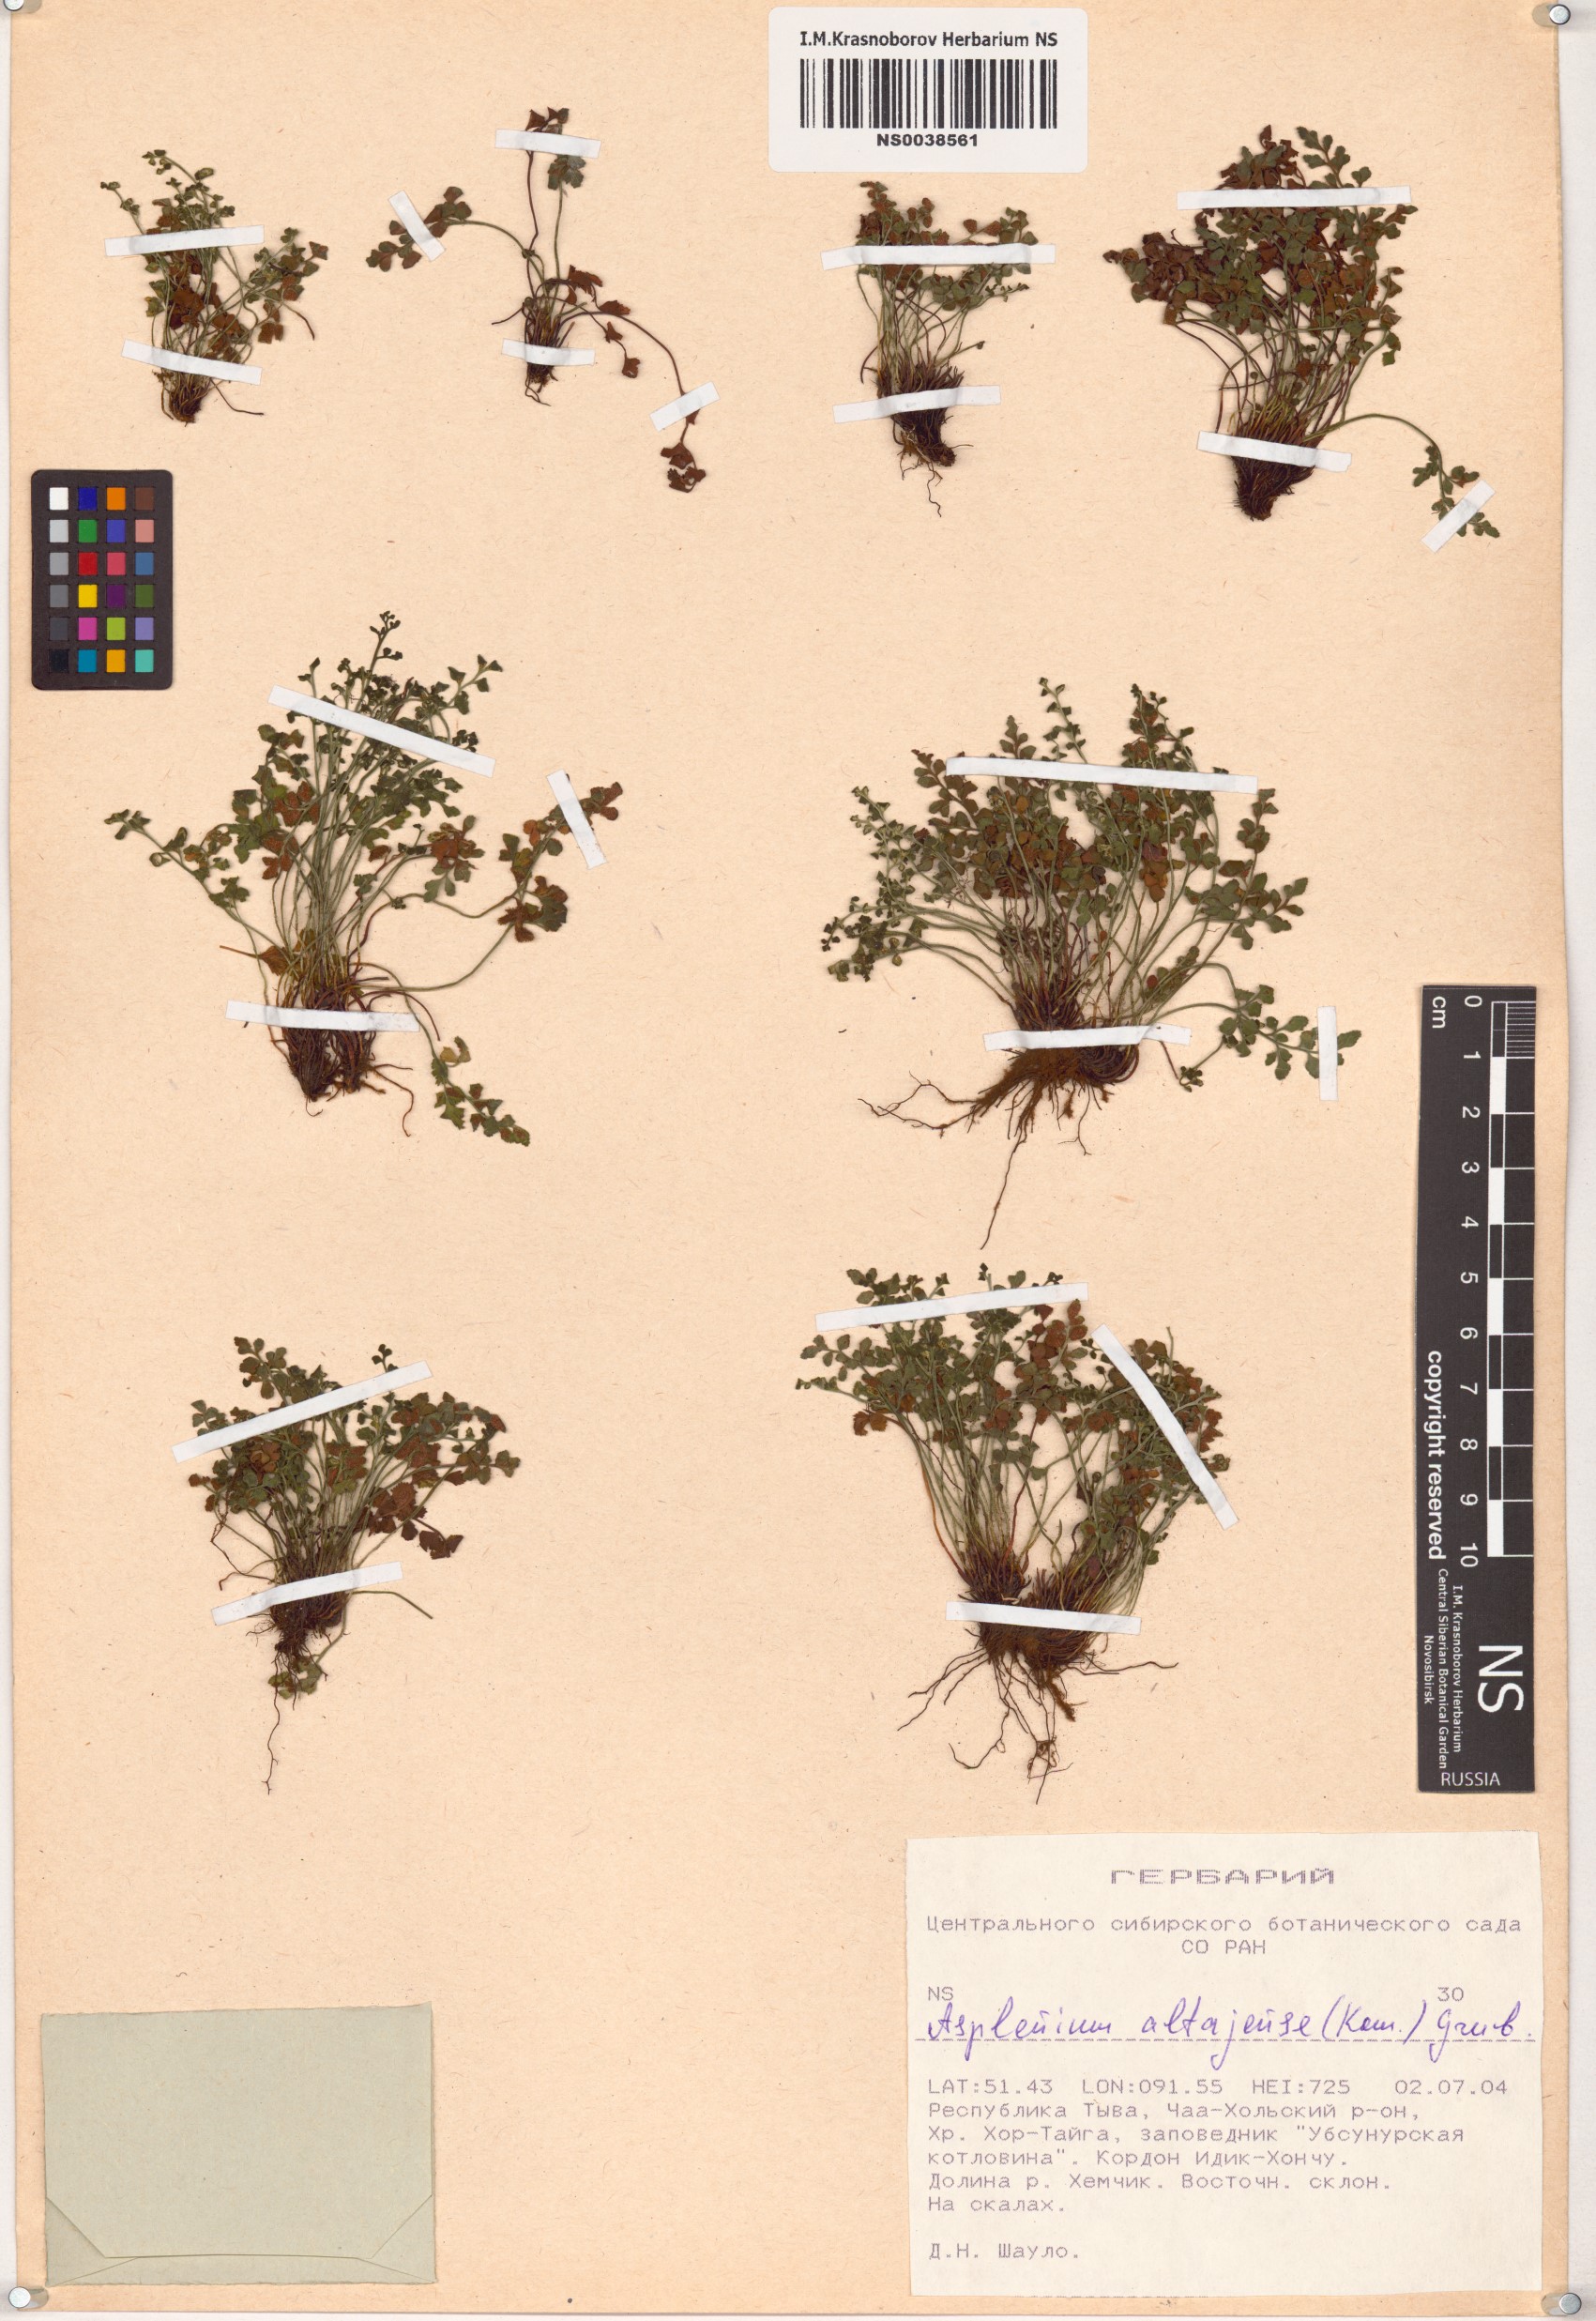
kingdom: Plantae
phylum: Tracheophyta
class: Polypodiopsida
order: Polypodiales
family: Aspleniaceae
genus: Asplenium
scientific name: Asplenium altajense
